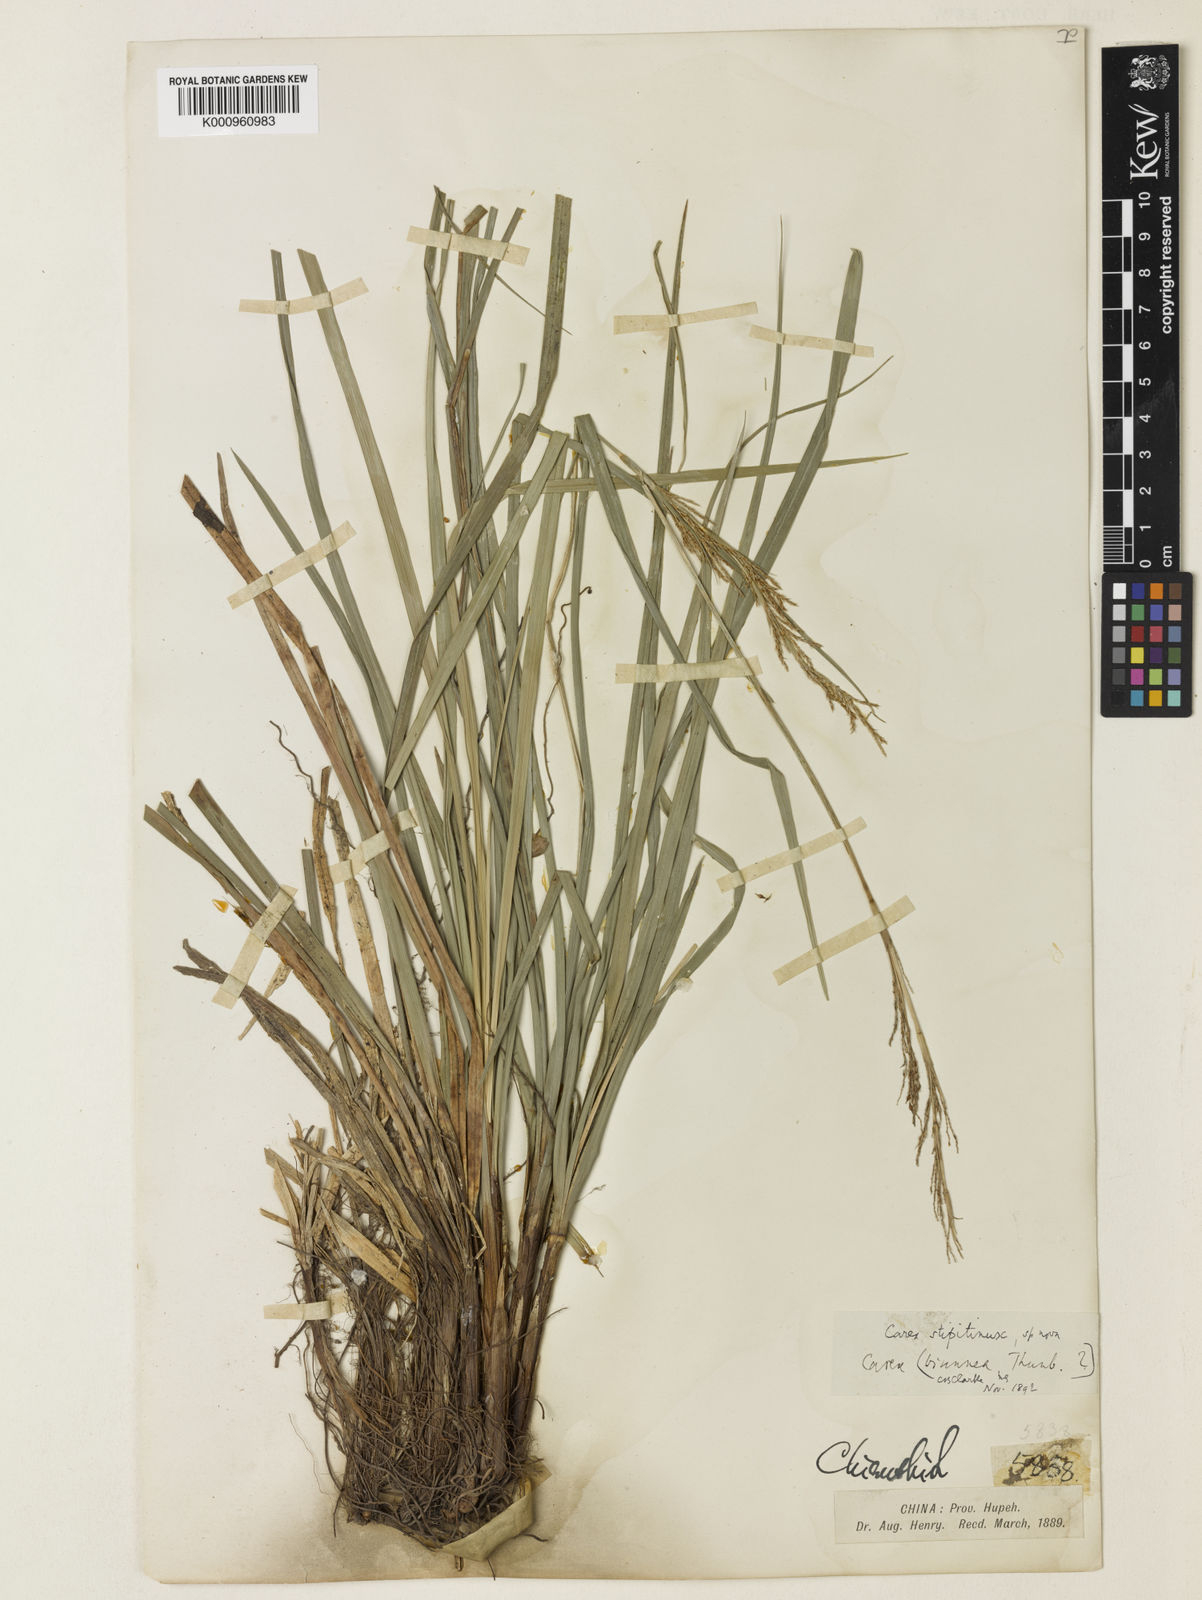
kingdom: Plantae
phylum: Tracheophyta
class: Liliopsida
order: Poales
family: Cyperaceae
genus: Carex
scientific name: Carex brunnea
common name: Greater brown sedge
